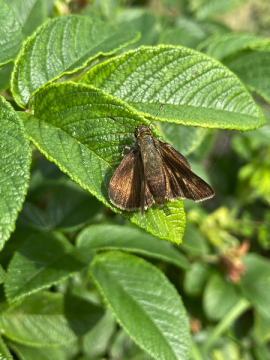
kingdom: Animalia
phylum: Arthropoda
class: Insecta
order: Lepidoptera
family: Hesperiidae
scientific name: Hesperiidae
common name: Skippers
